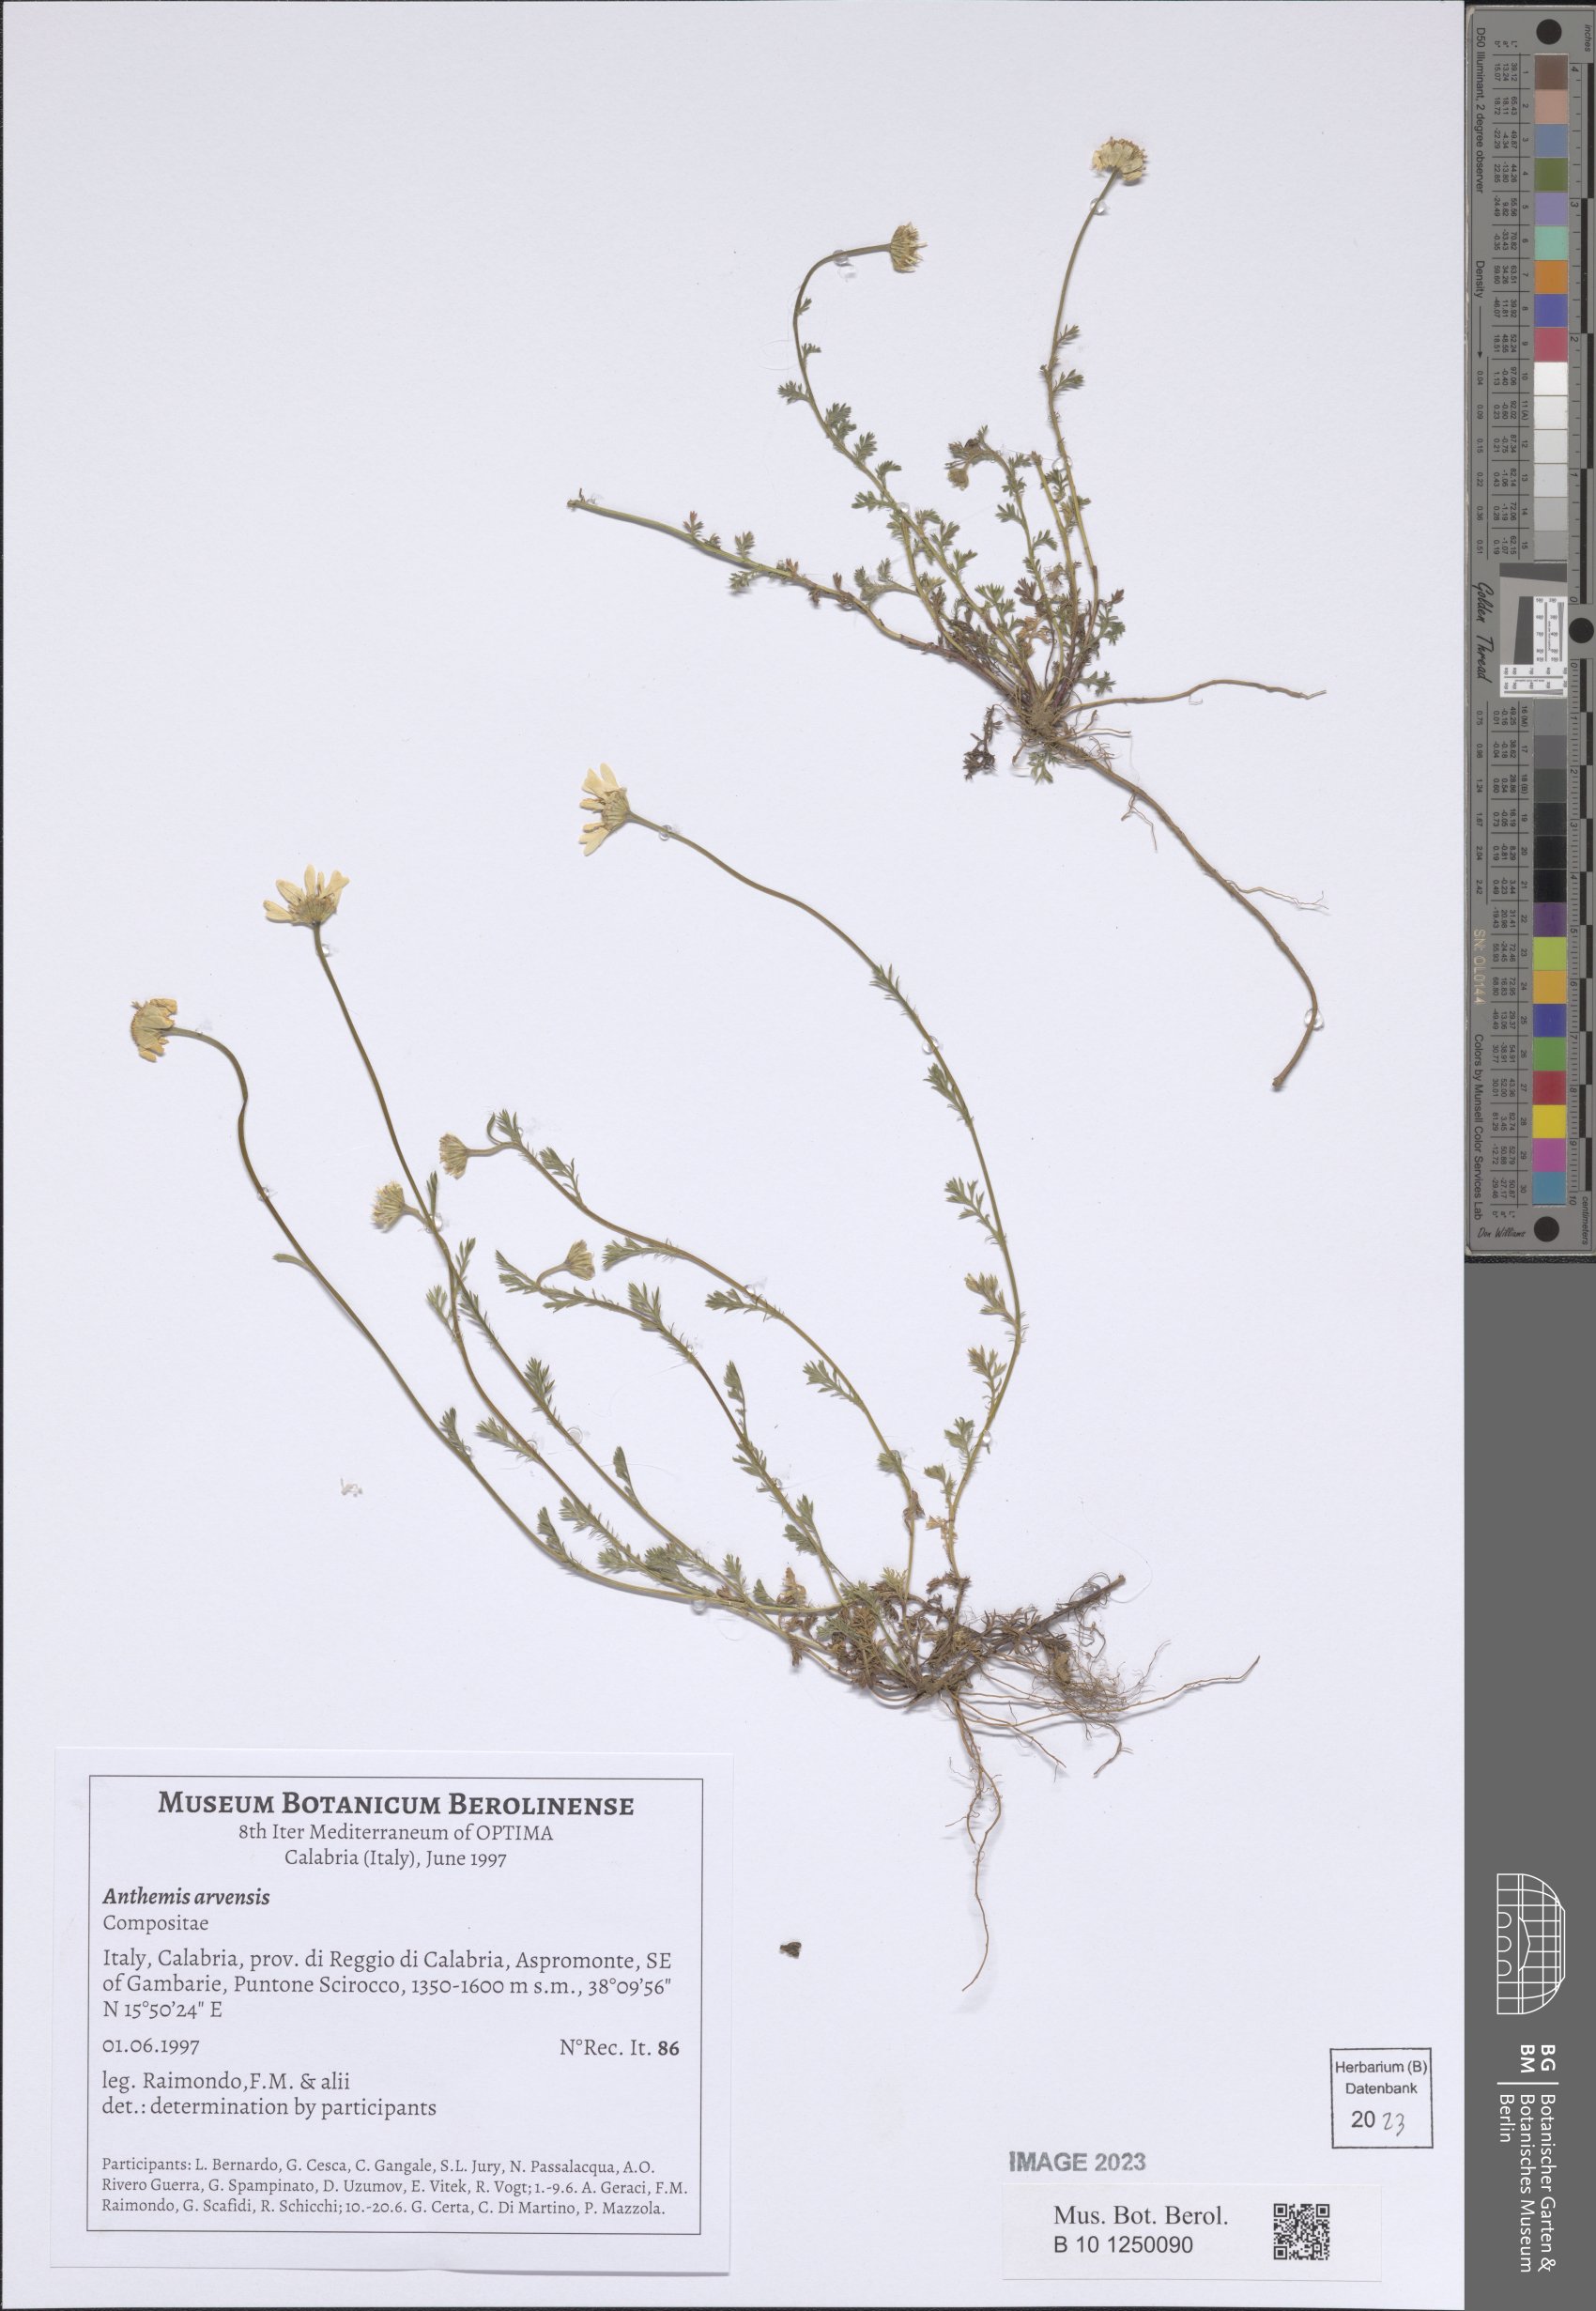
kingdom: Plantae
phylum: Tracheophyta
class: Magnoliopsida
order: Asterales
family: Asteraceae
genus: Anthemis
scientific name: Anthemis arvensis
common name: Corn chamomile
